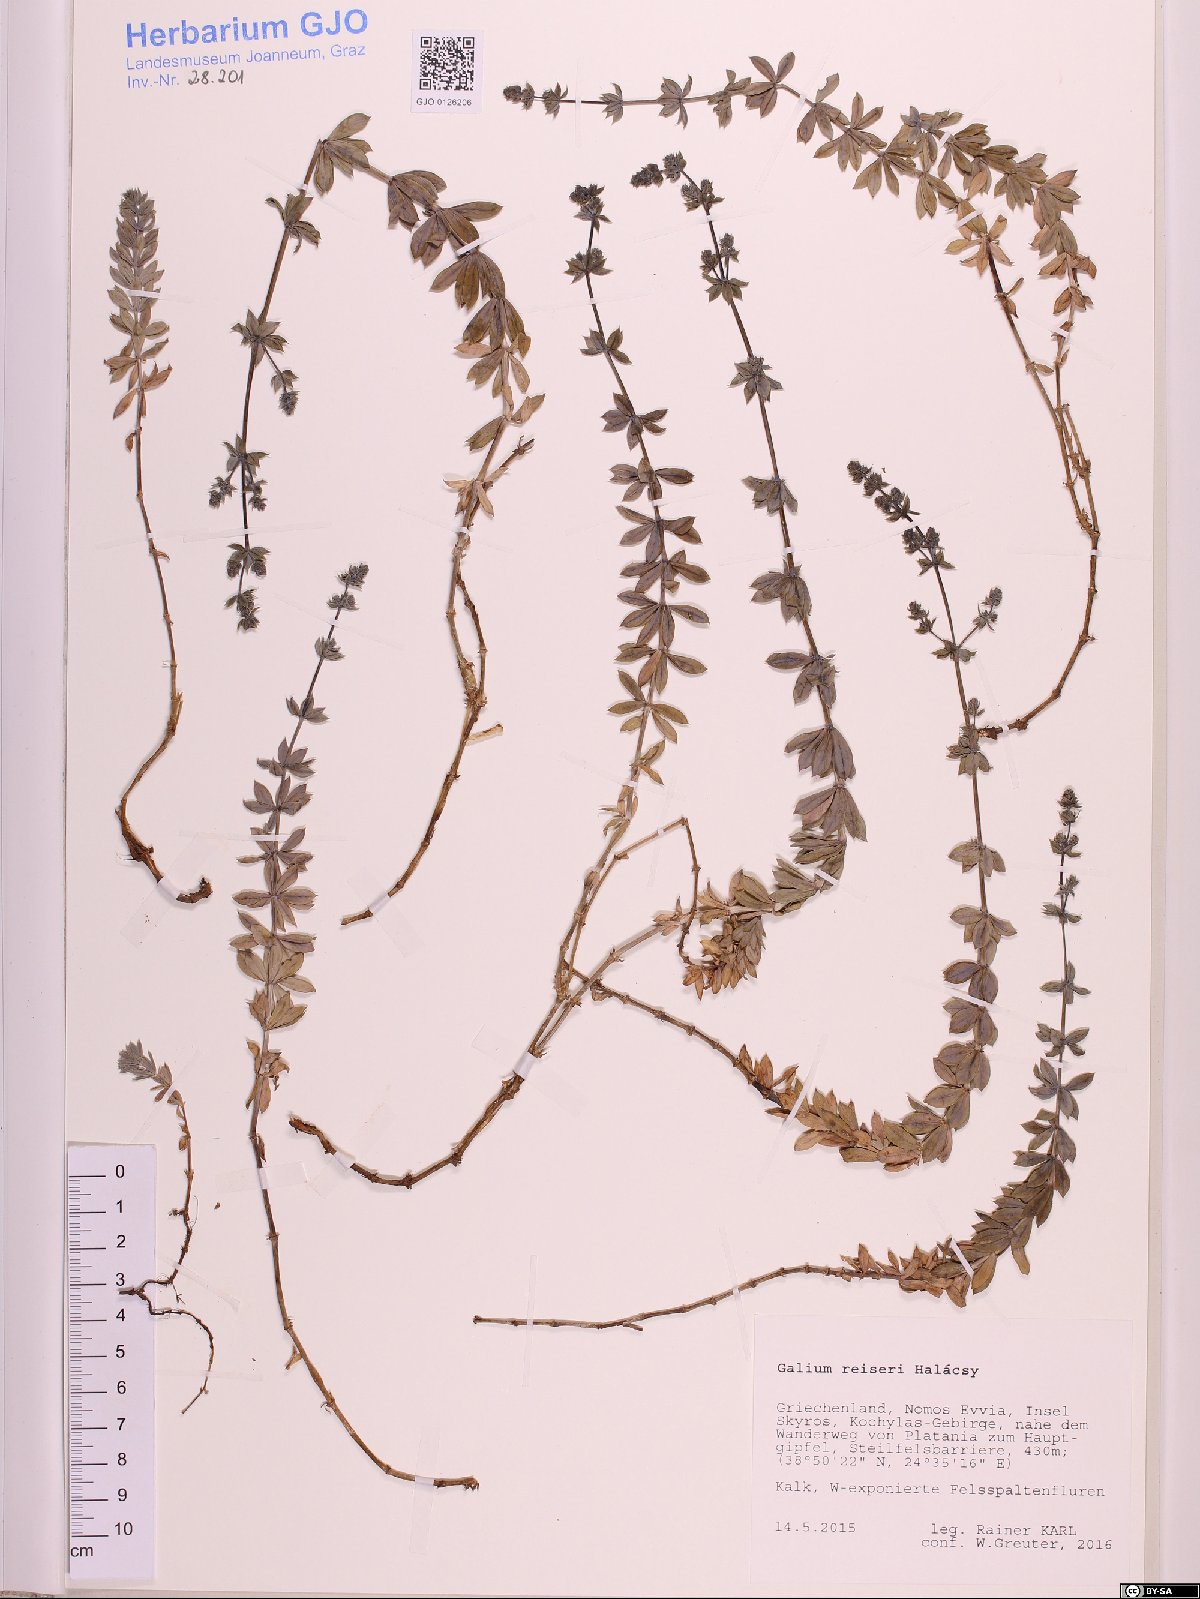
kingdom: Plantae
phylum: Tracheophyta
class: Magnoliopsida
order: Gentianales
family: Rubiaceae
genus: Galium
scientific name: Galium reiseri
